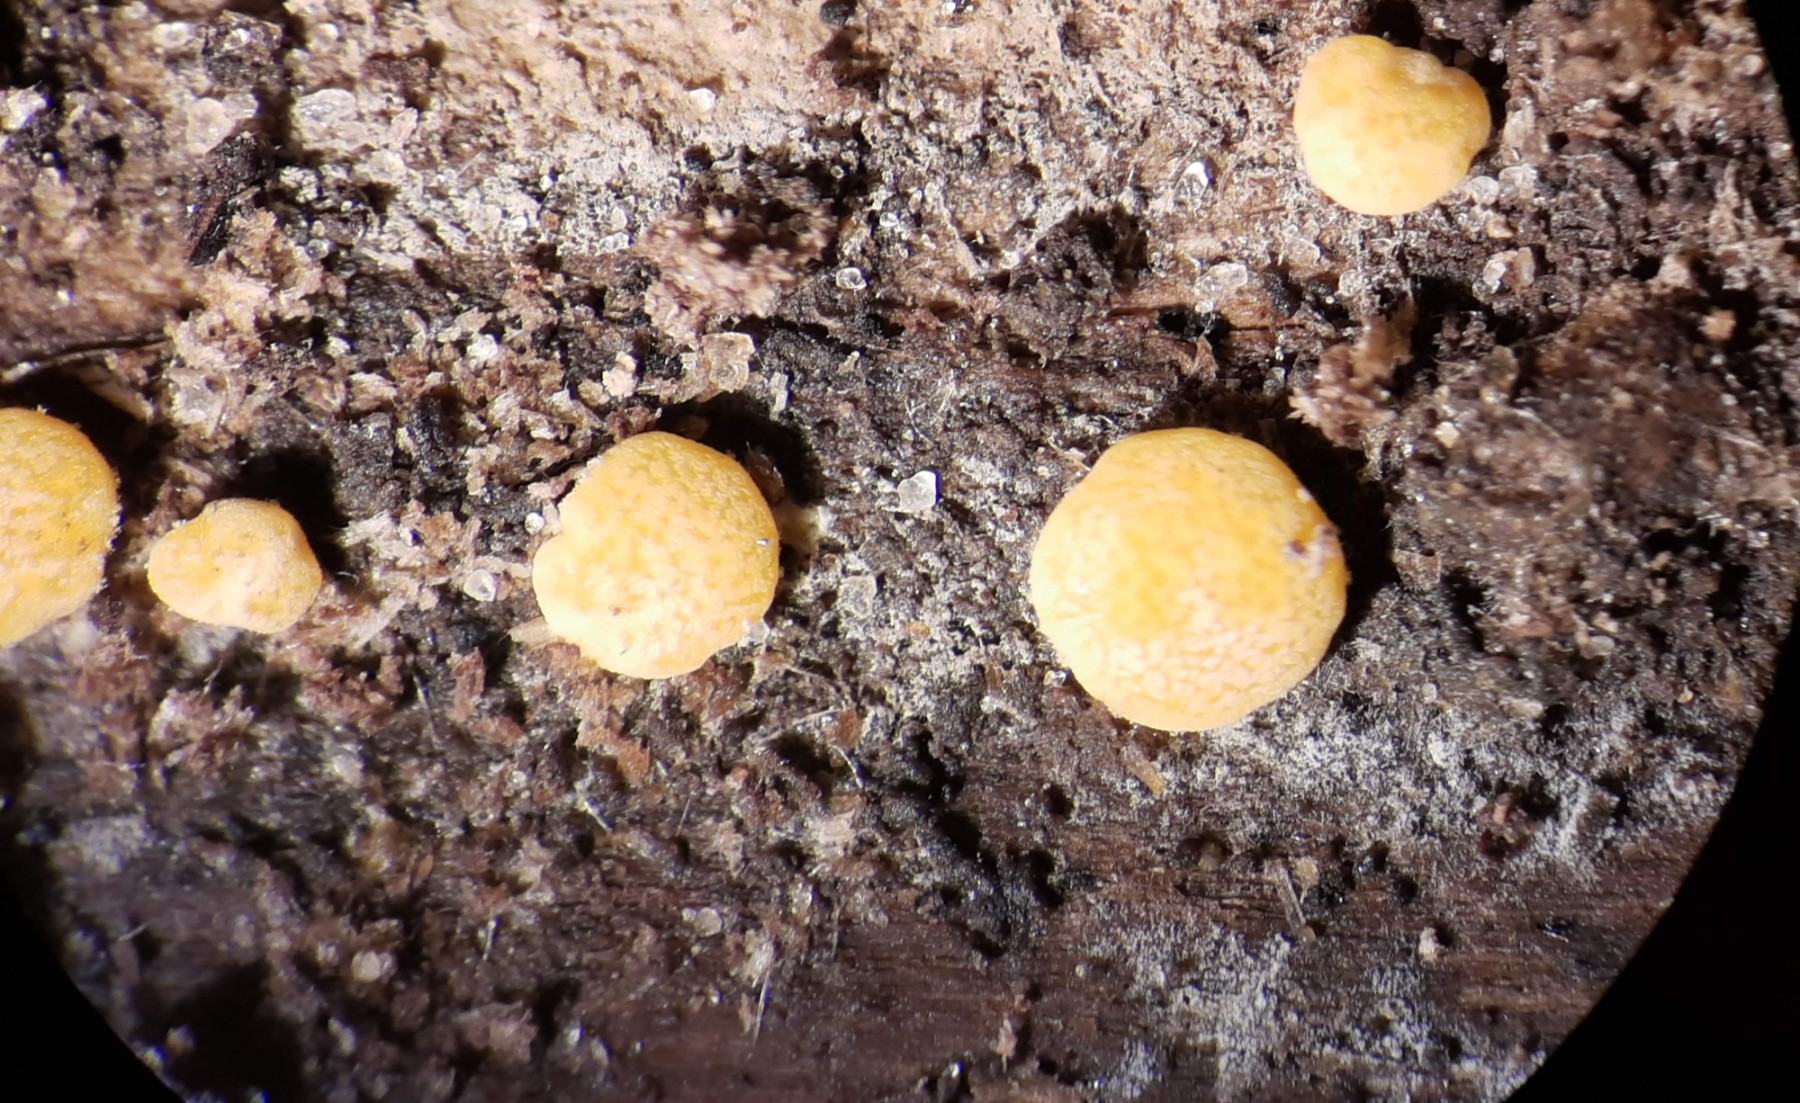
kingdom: Fungi
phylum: Ascomycota
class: Sordariomycetes
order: Hypocreales
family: Hypocreaceae
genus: Trichoderma
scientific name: Trichoderma aureoviride
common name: æggegul kødkerne
